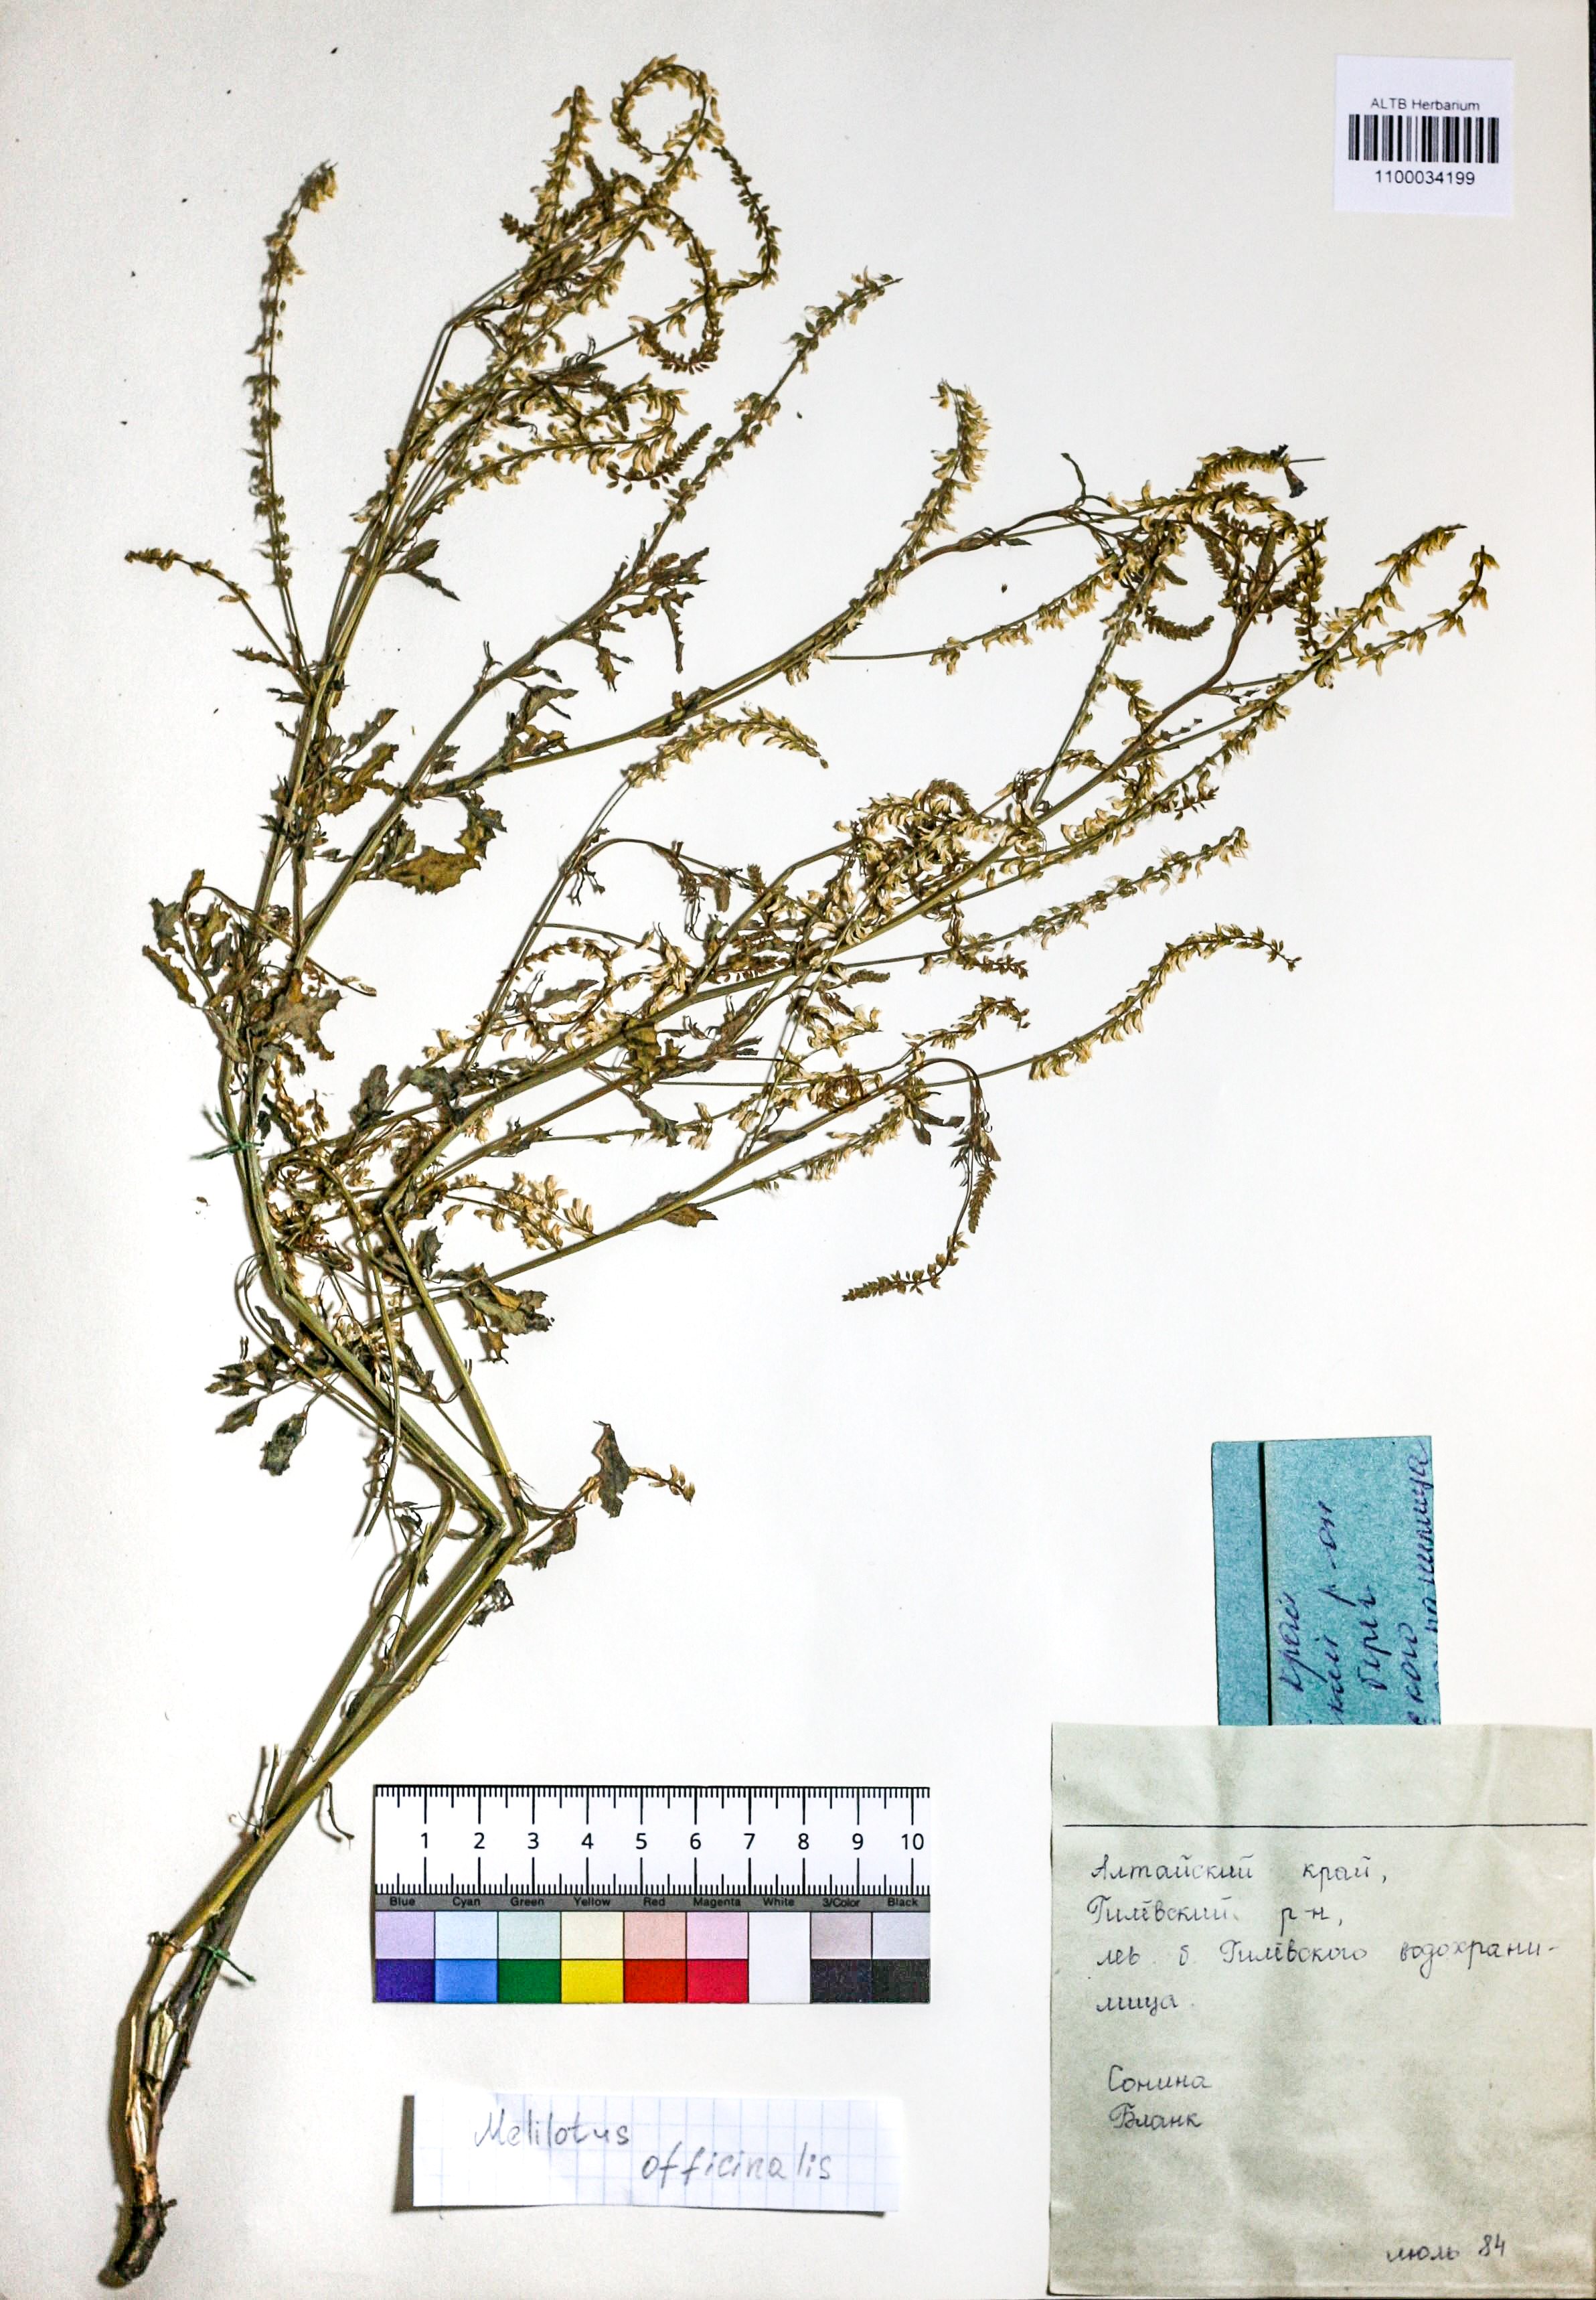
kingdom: Plantae
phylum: Tracheophyta
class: Magnoliopsida
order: Fabales
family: Fabaceae
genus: Melilotus
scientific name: Melilotus officinalis
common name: Sweetclover
